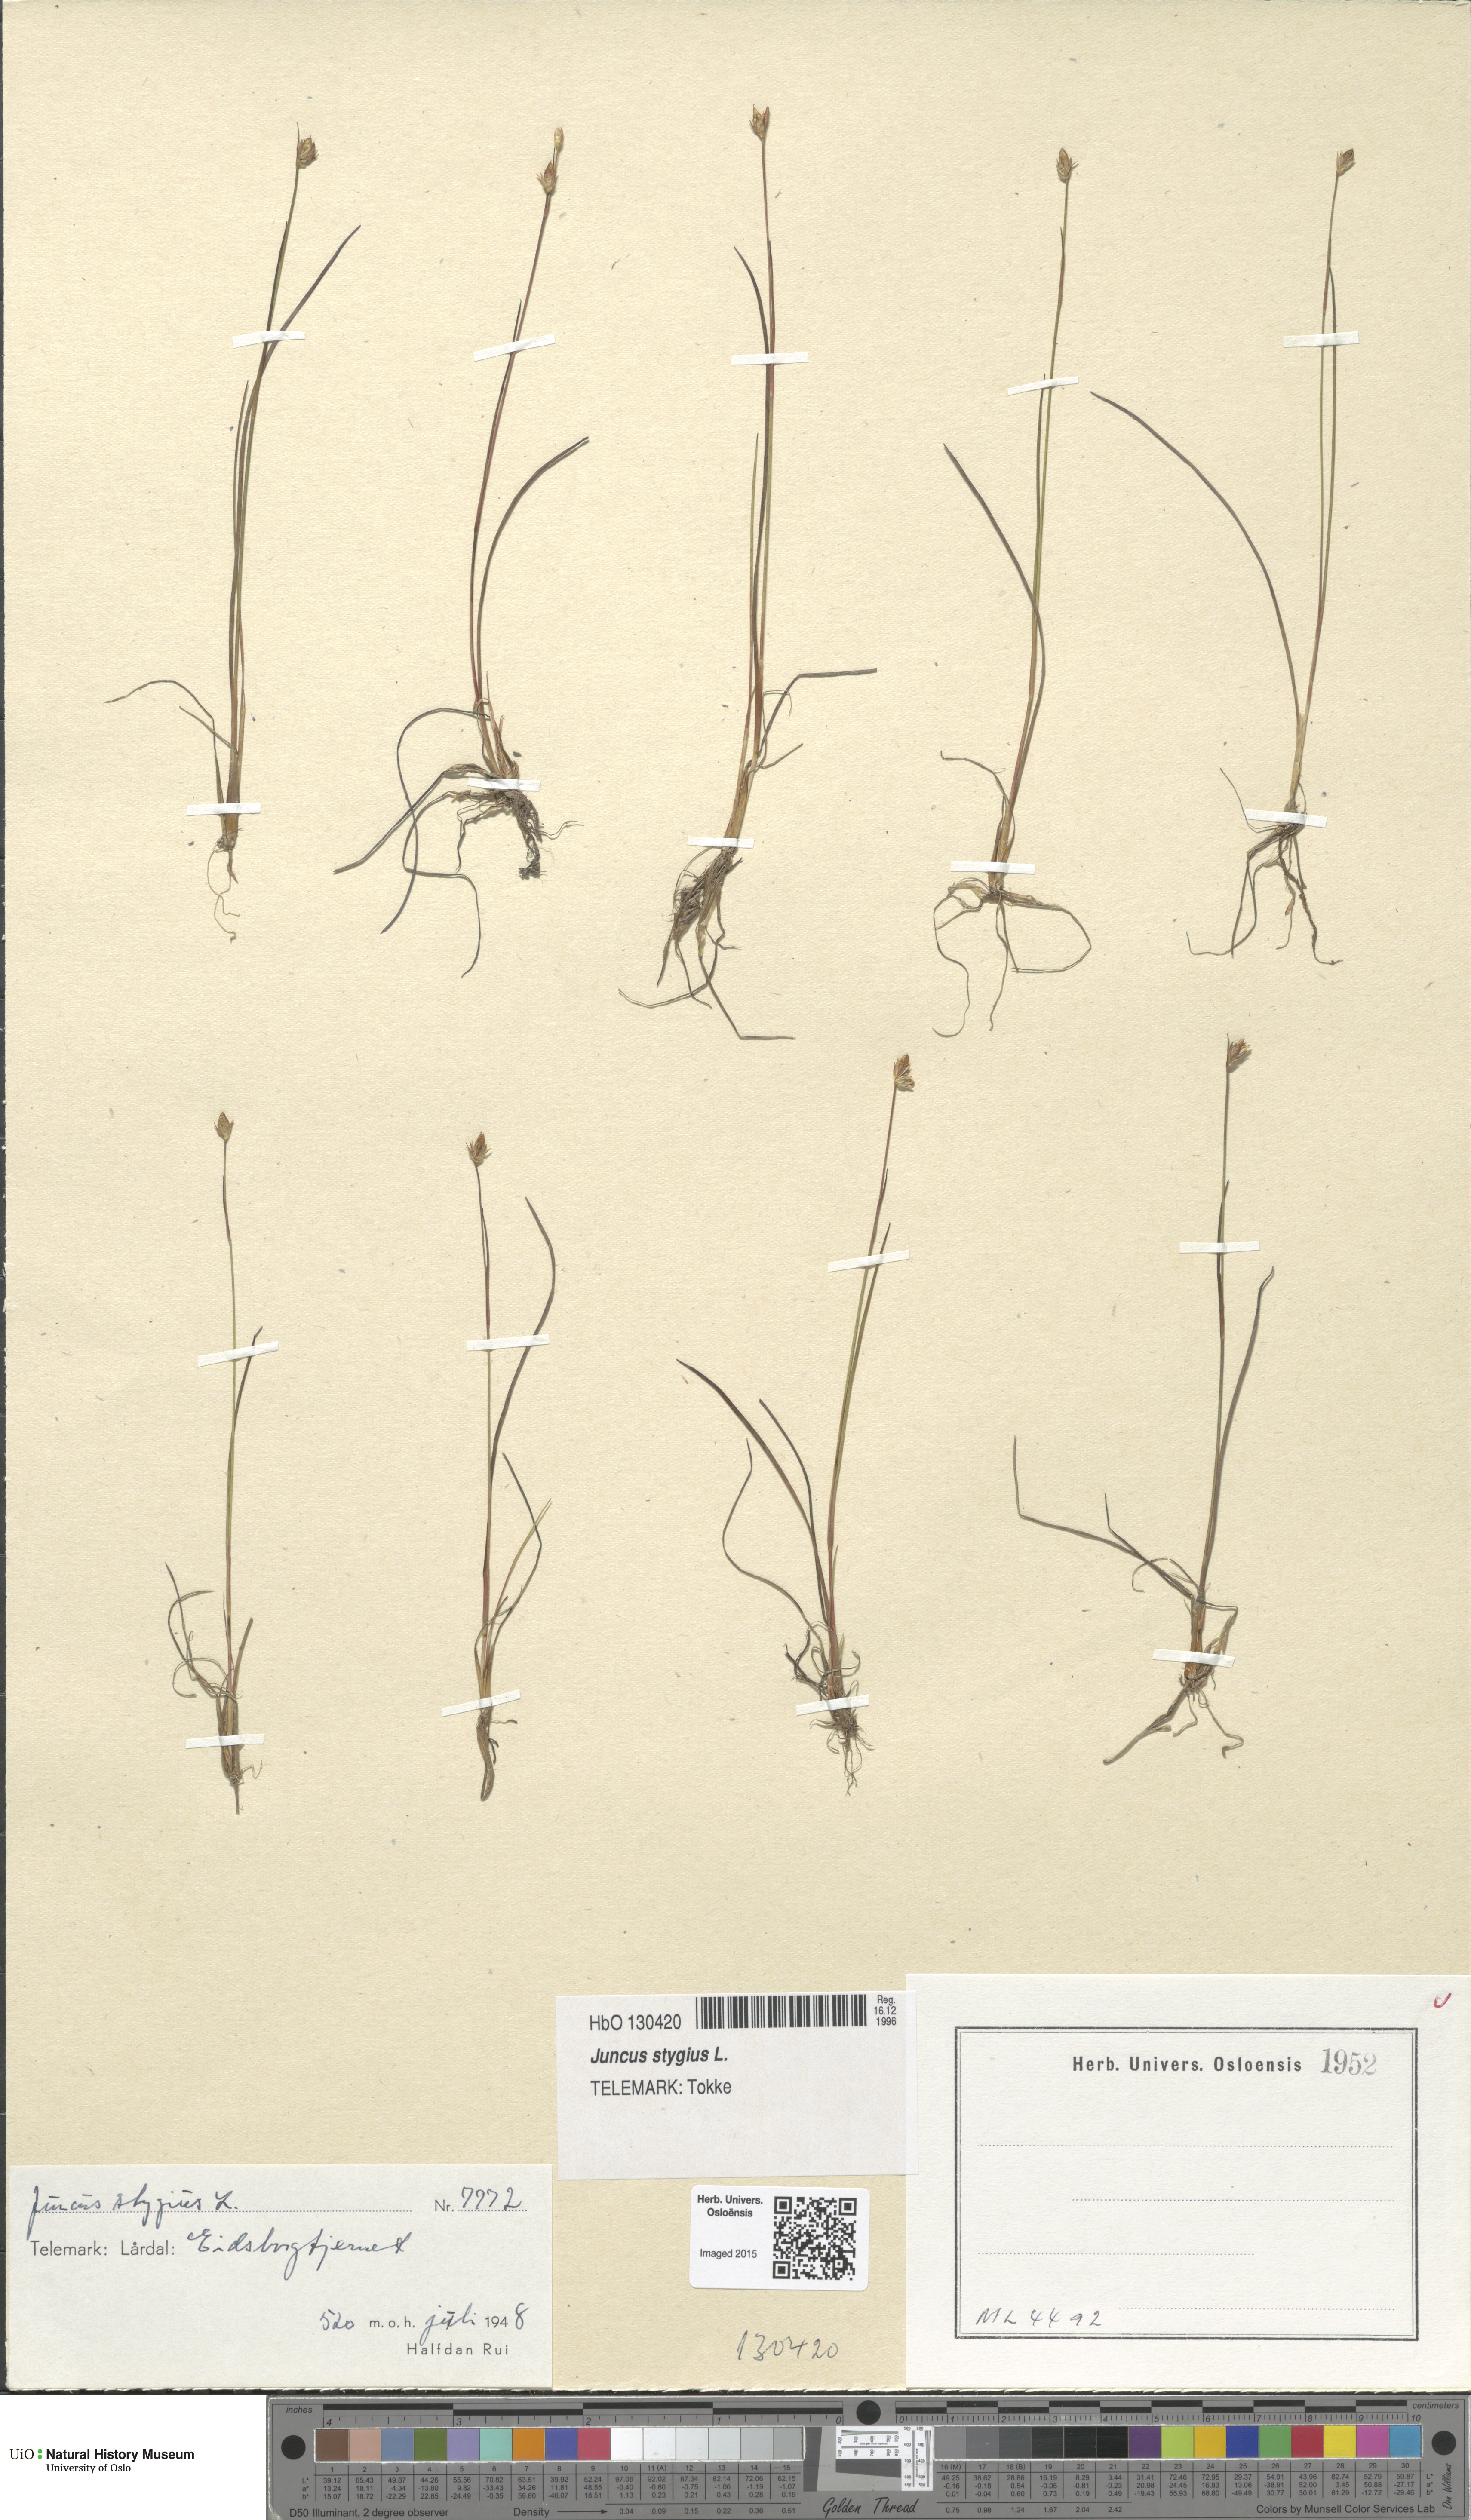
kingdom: Plantae
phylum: Tracheophyta
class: Liliopsida
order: Poales
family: Juncaceae
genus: Juncus
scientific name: Juncus stygius
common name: Bog rush
